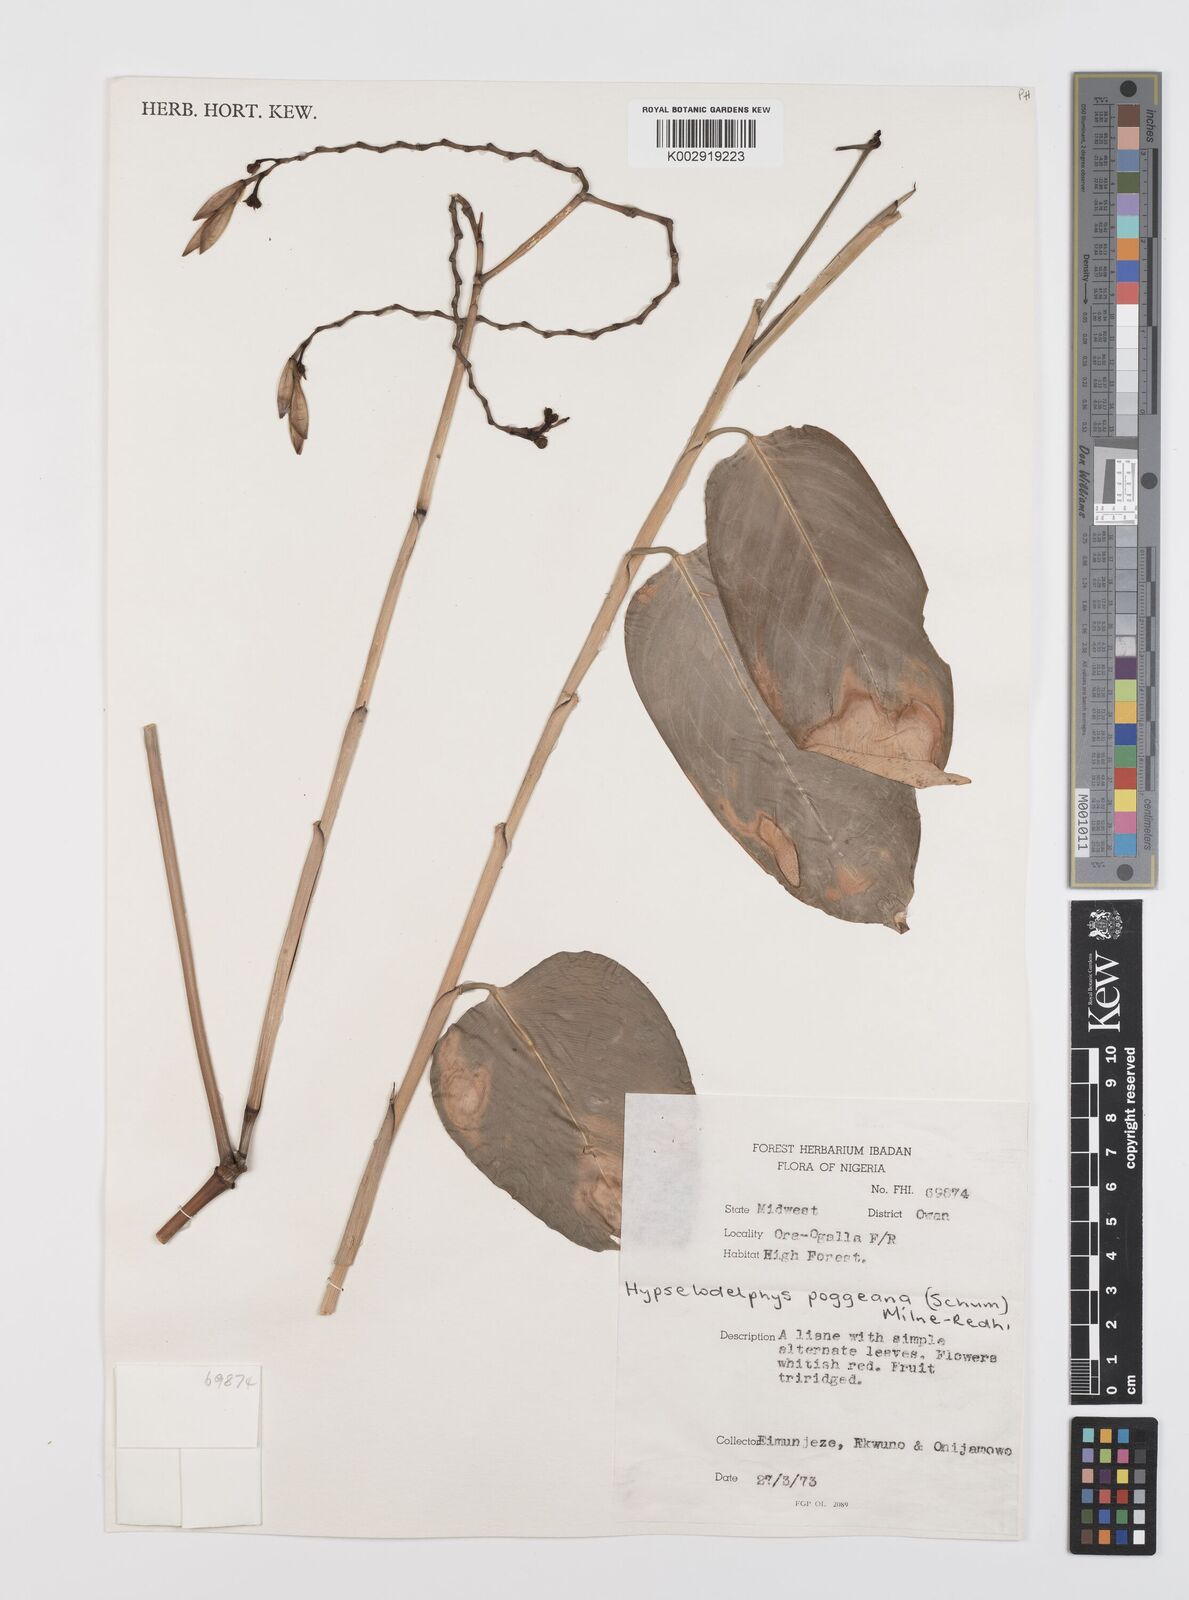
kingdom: Plantae
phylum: Tracheophyta
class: Liliopsida
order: Zingiberales
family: Marantaceae
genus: Hypselodelphys
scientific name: Hypselodelphys poggeana
